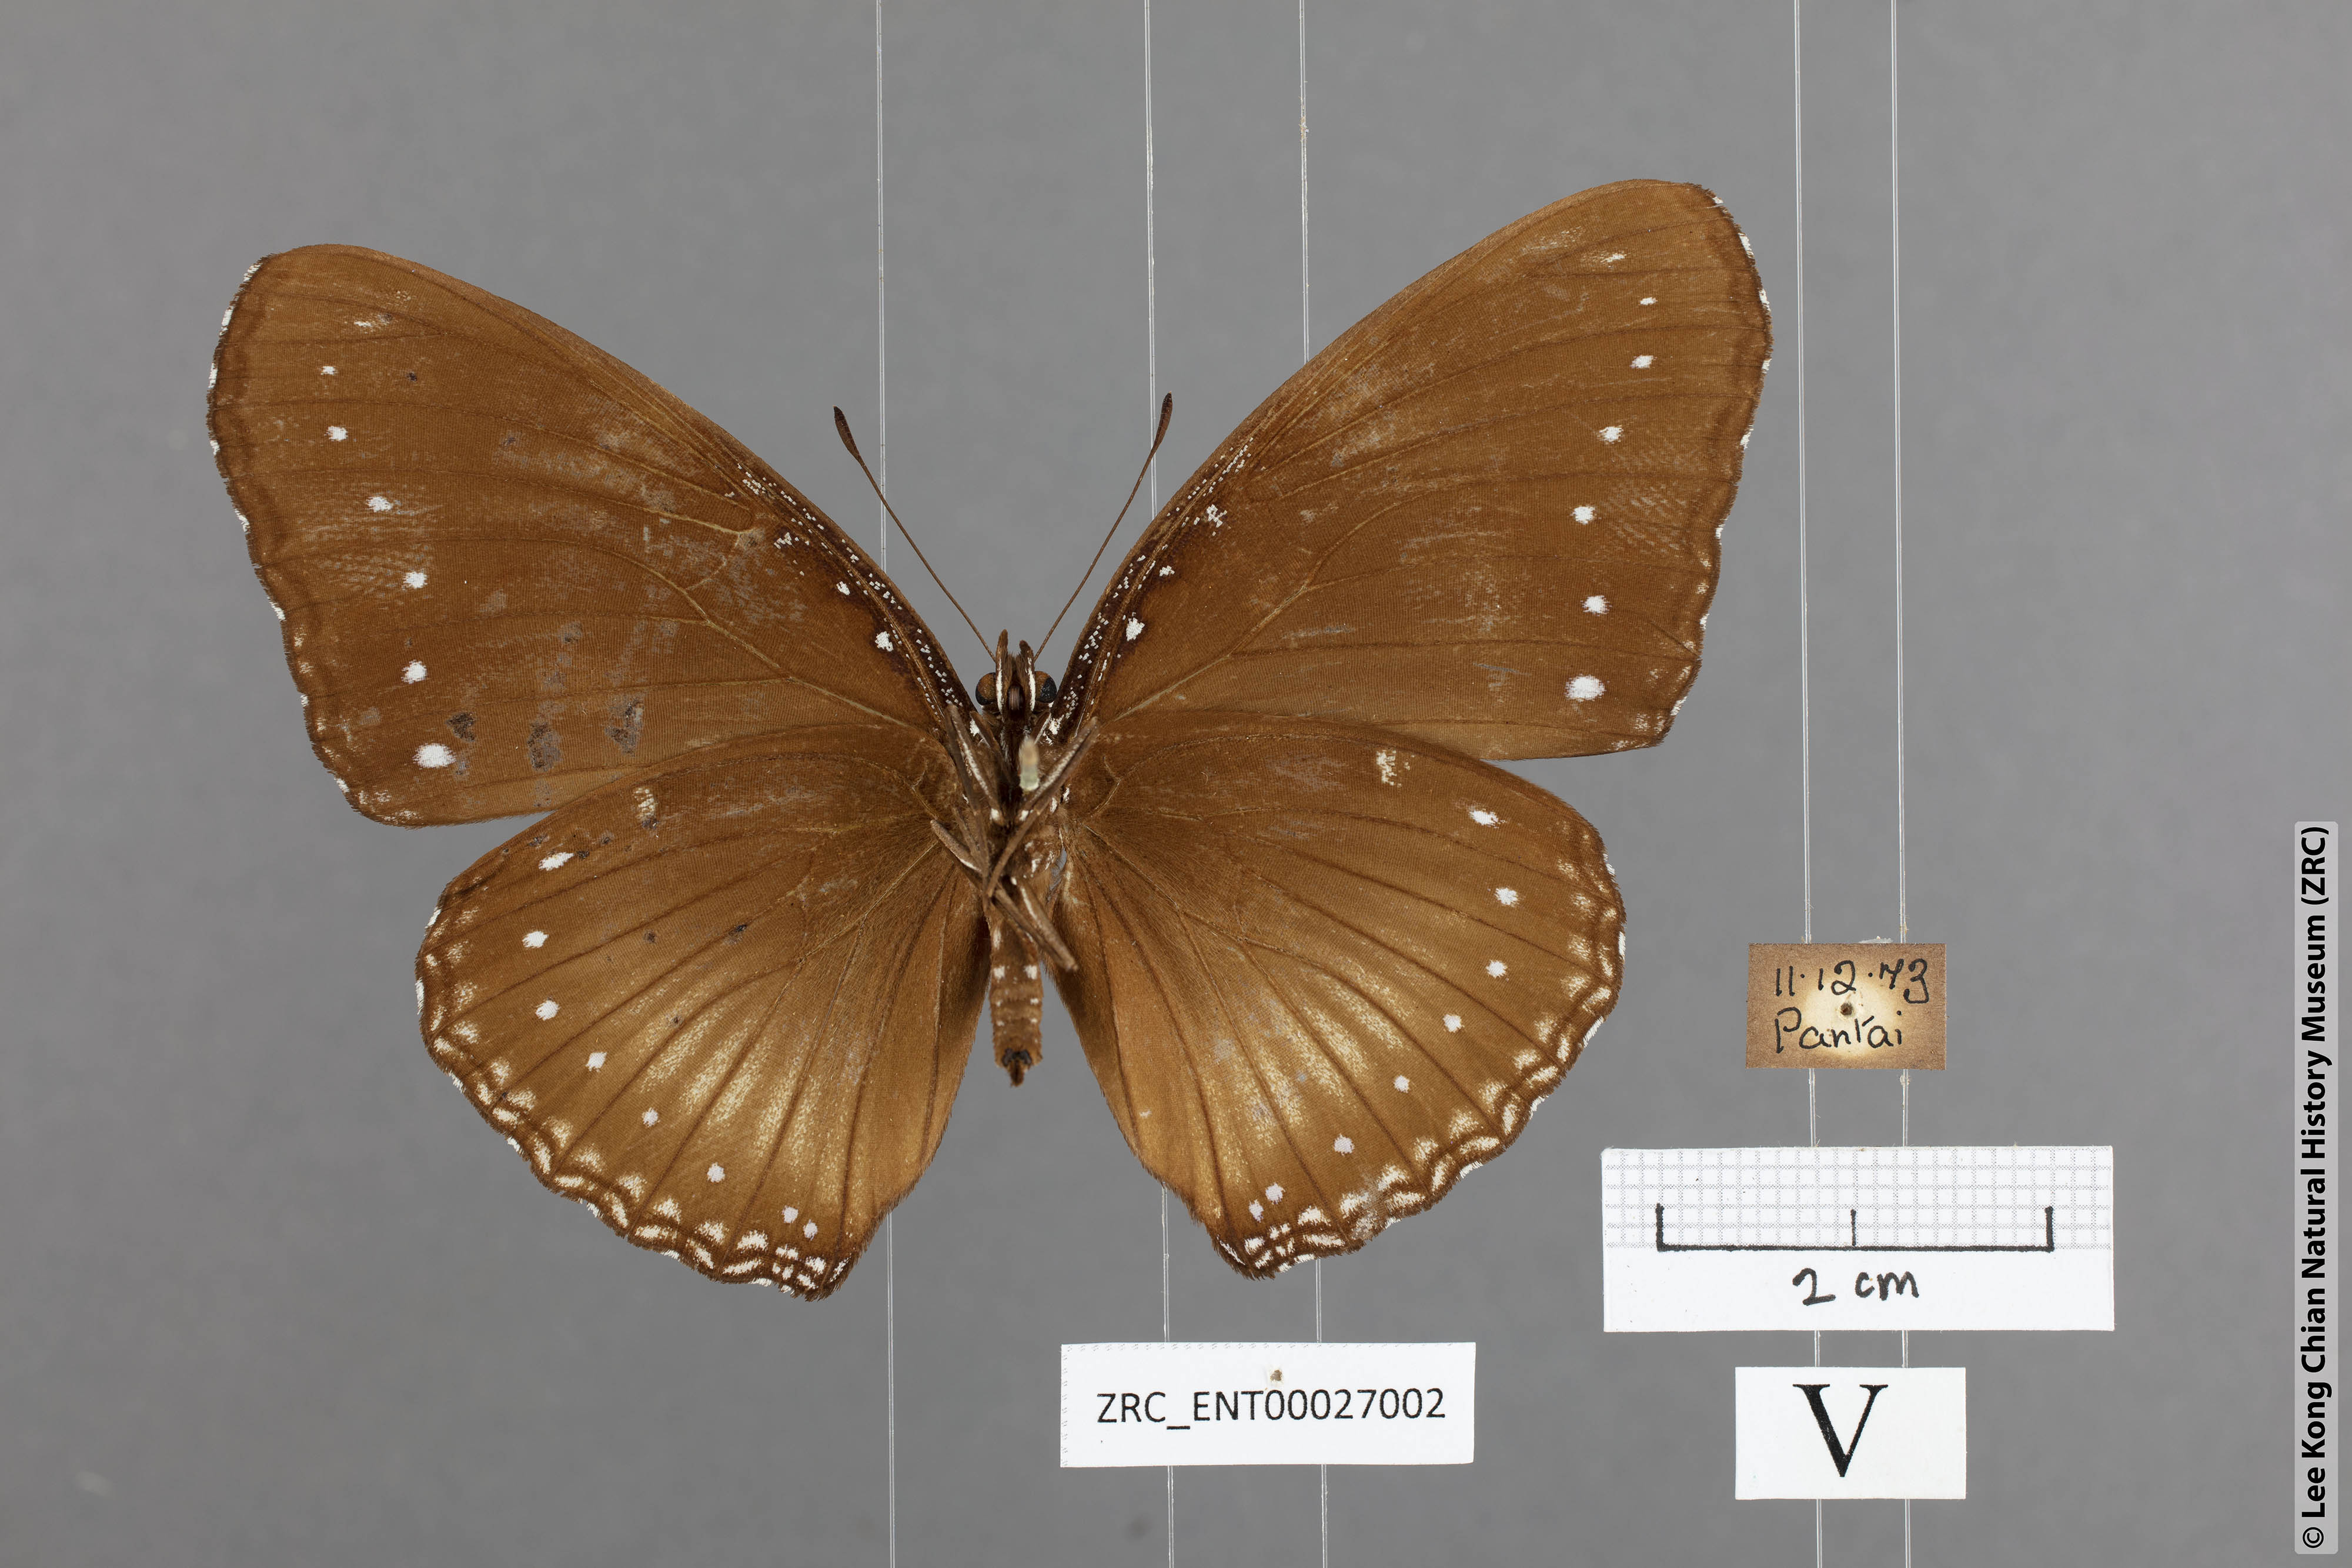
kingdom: Animalia
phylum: Arthropoda
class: Insecta
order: Lepidoptera
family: Nymphalidae
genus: Hypolimnas
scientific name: Hypolimnas anomala
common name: Malayan eggfly
